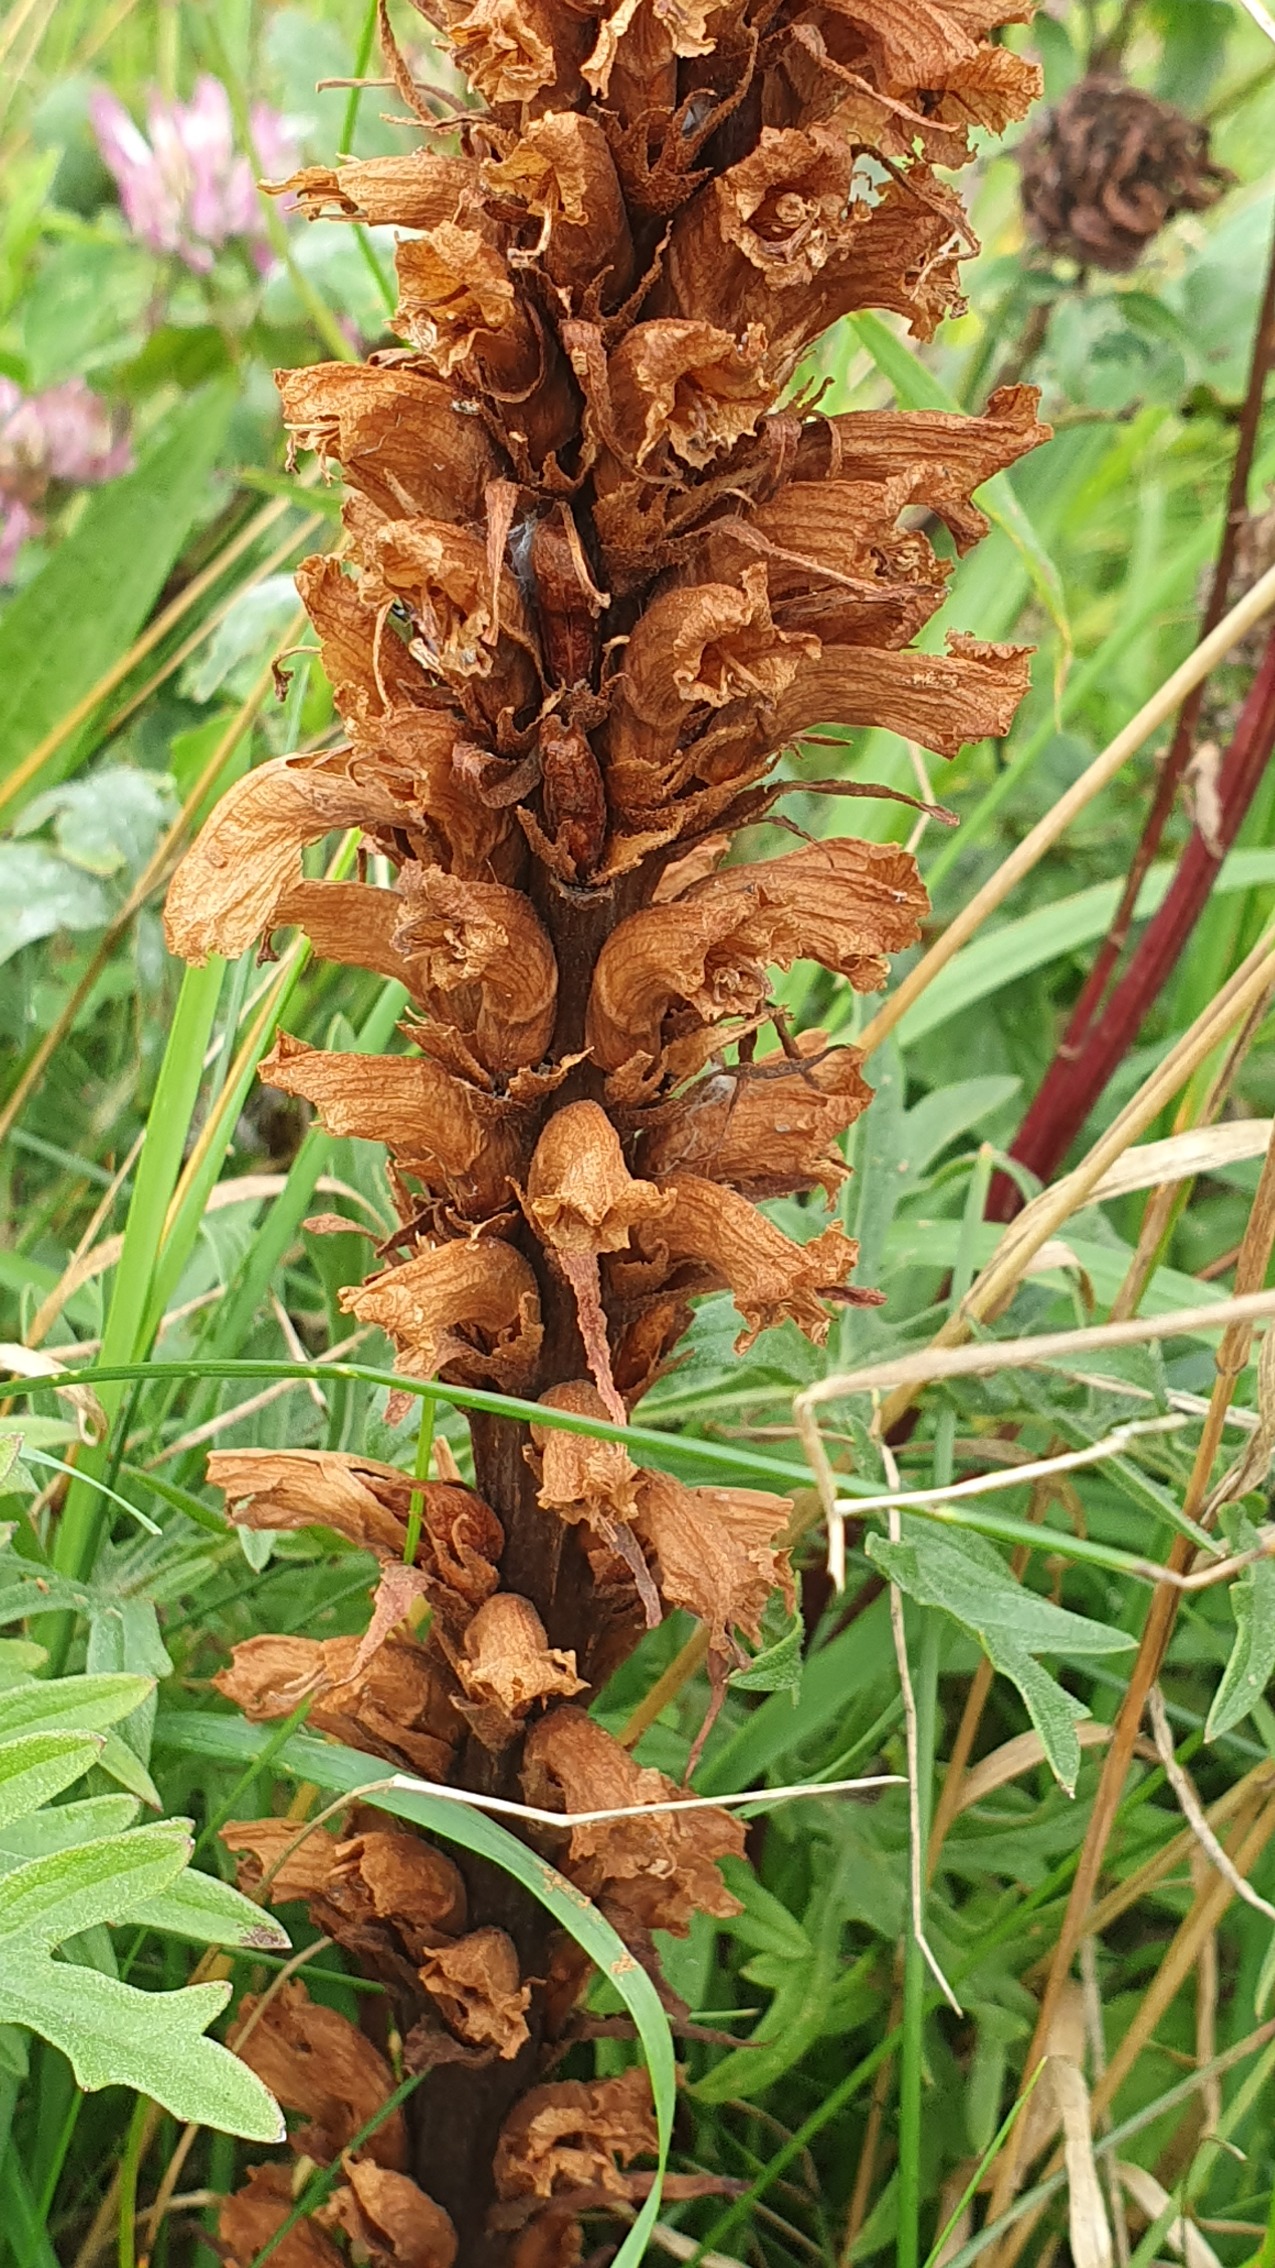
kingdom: Plantae
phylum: Tracheophyta
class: Magnoliopsida
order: Lamiales
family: Orobanchaceae
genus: Orobanche
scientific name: Orobanche elatior
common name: Stor gyvelkvæler
